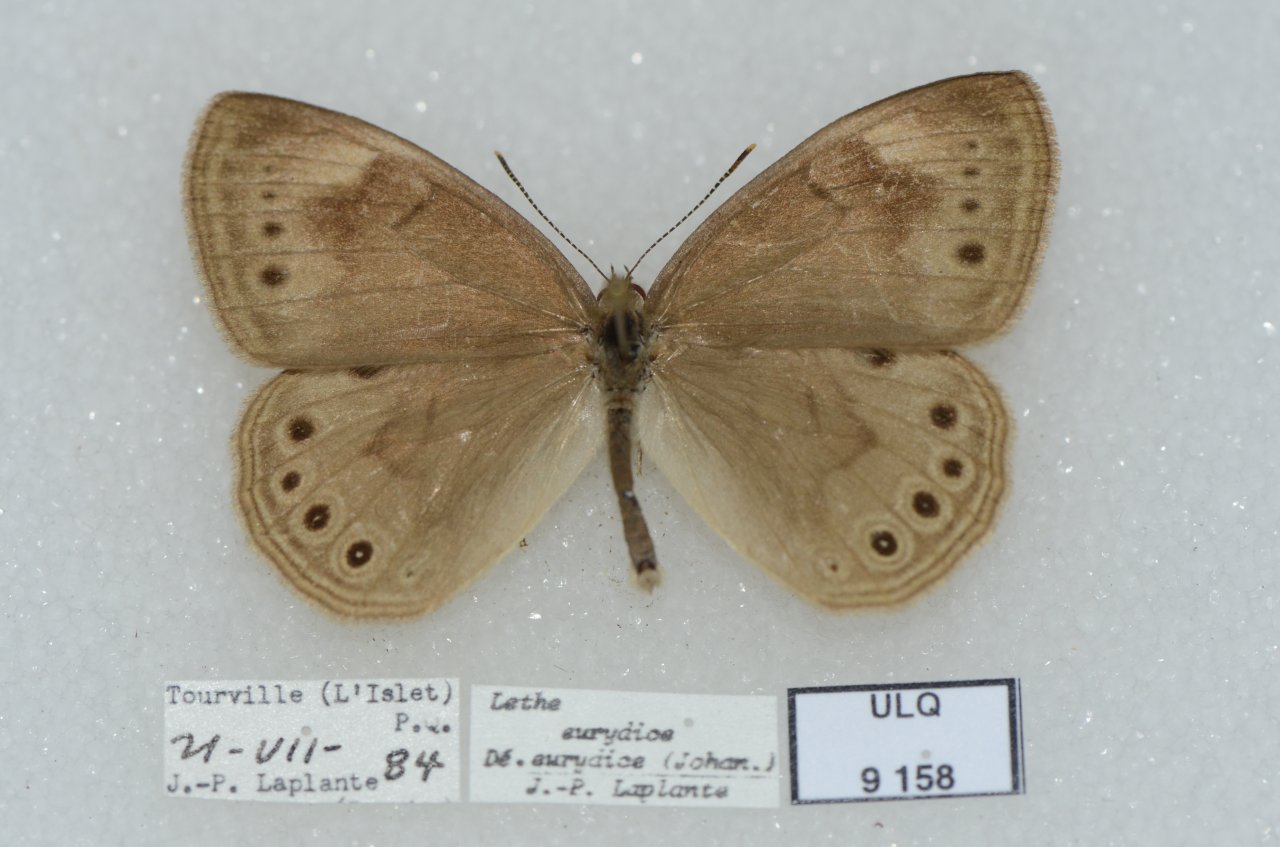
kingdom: Animalia
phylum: Arthropoda
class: Insecta
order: Lepidoptera
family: Nymphalidae
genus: Lethe
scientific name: Lethe eurydice
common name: Eyed Brown
